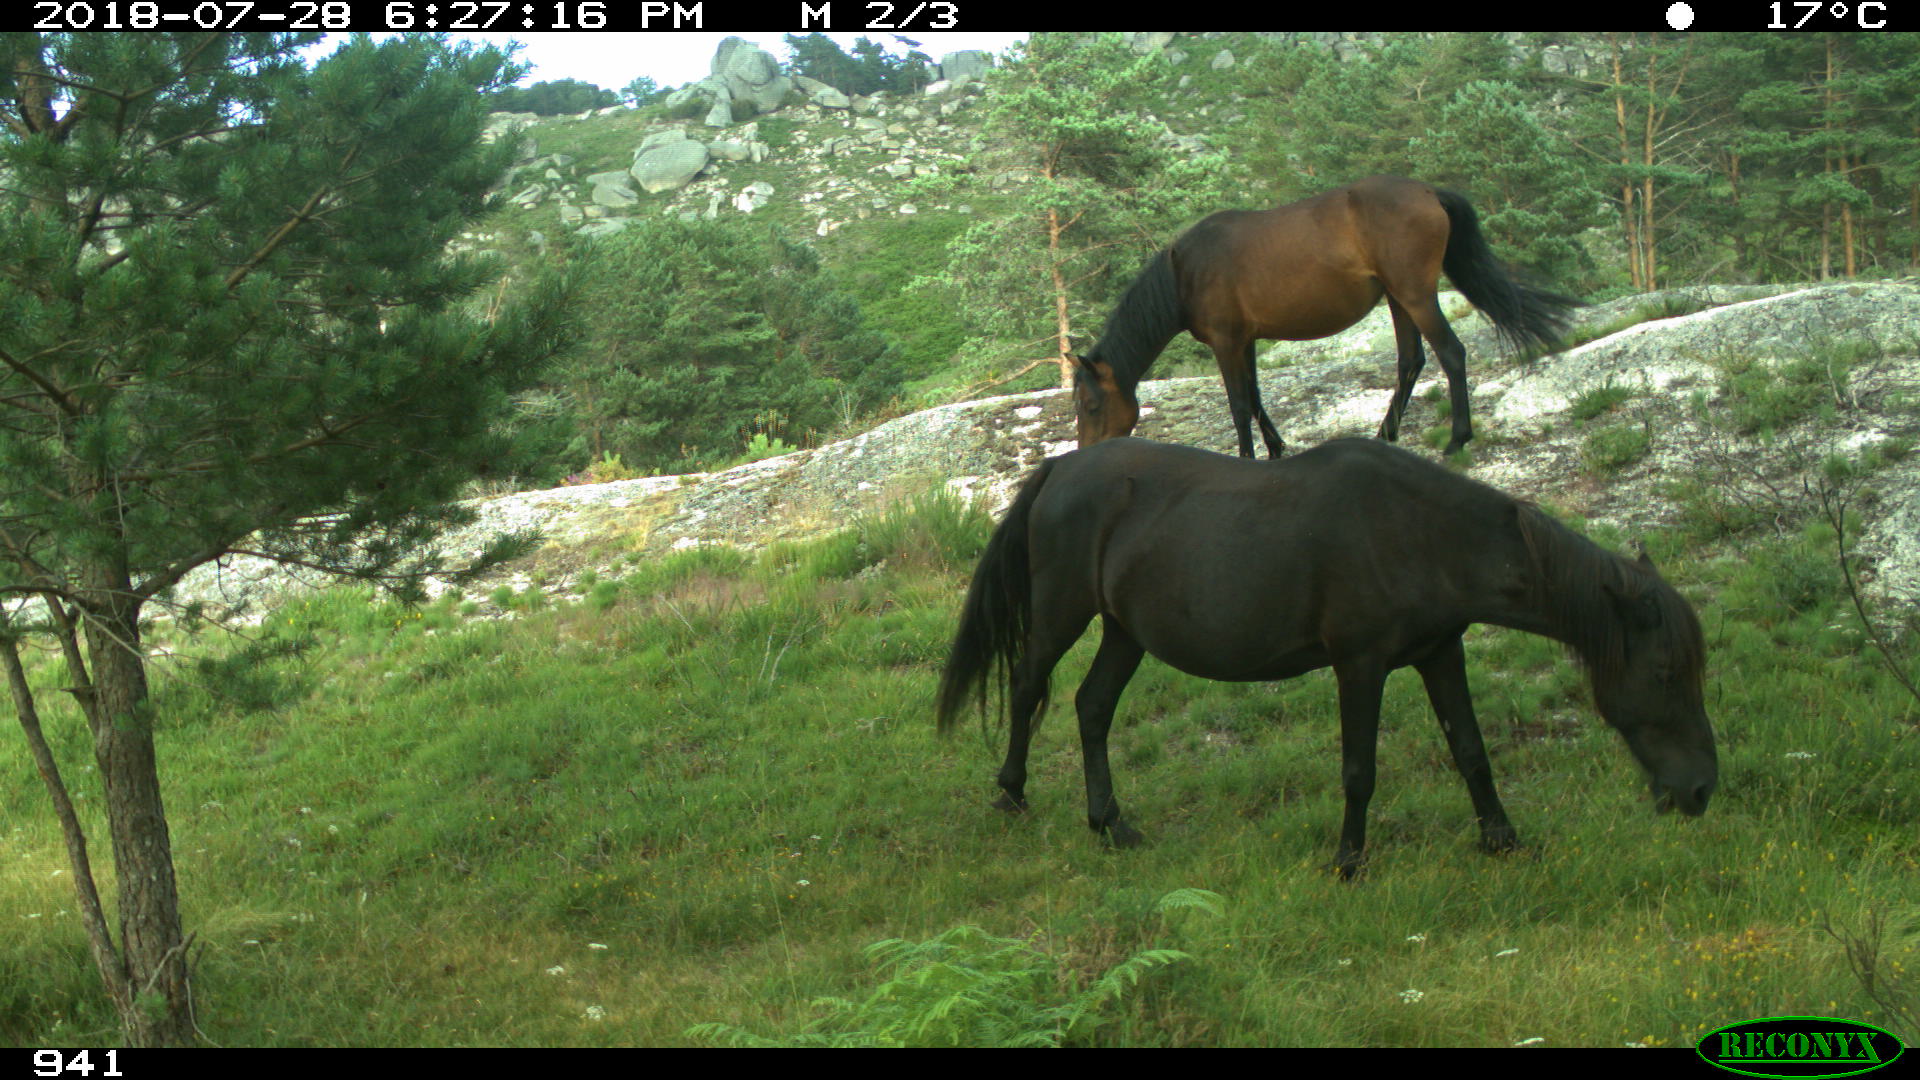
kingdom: Animalia
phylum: Chordata
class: Mammalia
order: Perissodactyla
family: Equidae
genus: Equus
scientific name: Equus caballus
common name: Horse
